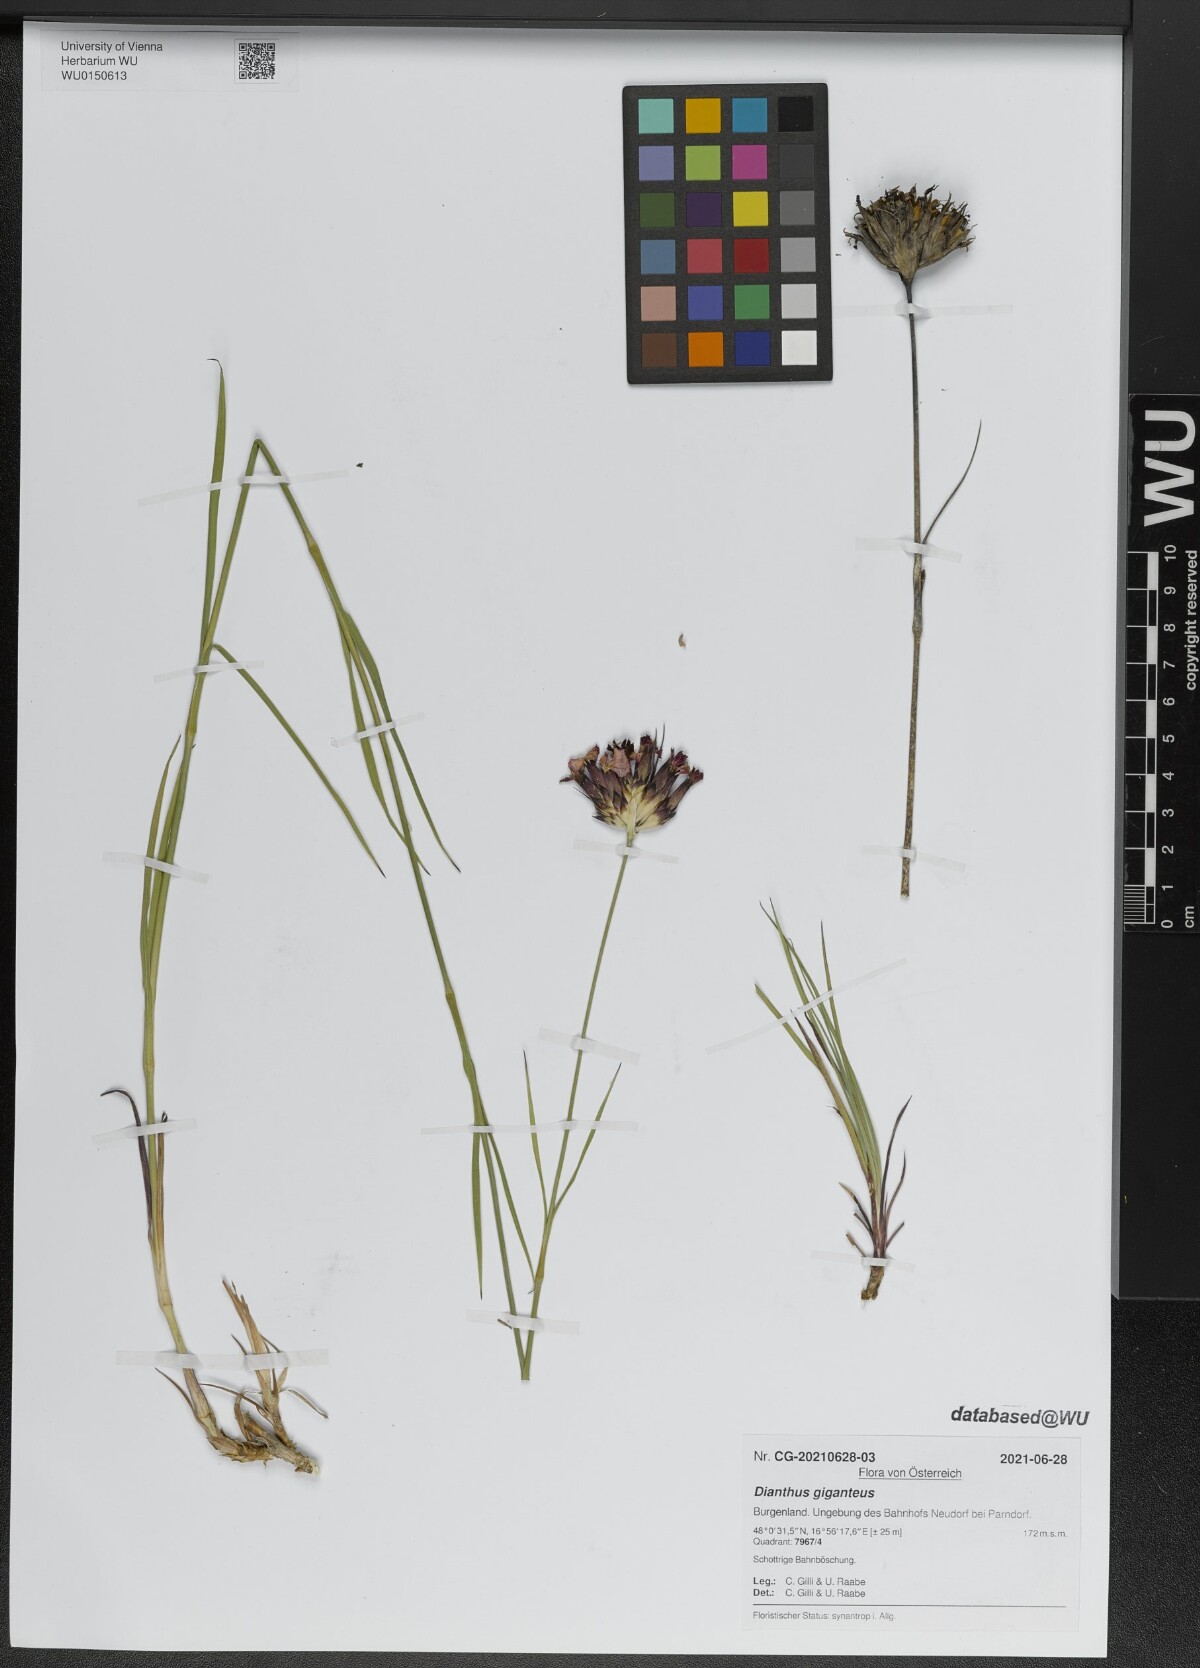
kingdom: Plantae
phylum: Tracheophyta
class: Magnoliopsida
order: Caryophyllales
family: Caryophyllaceae
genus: Dianthus
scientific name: Dianthus giganteus
